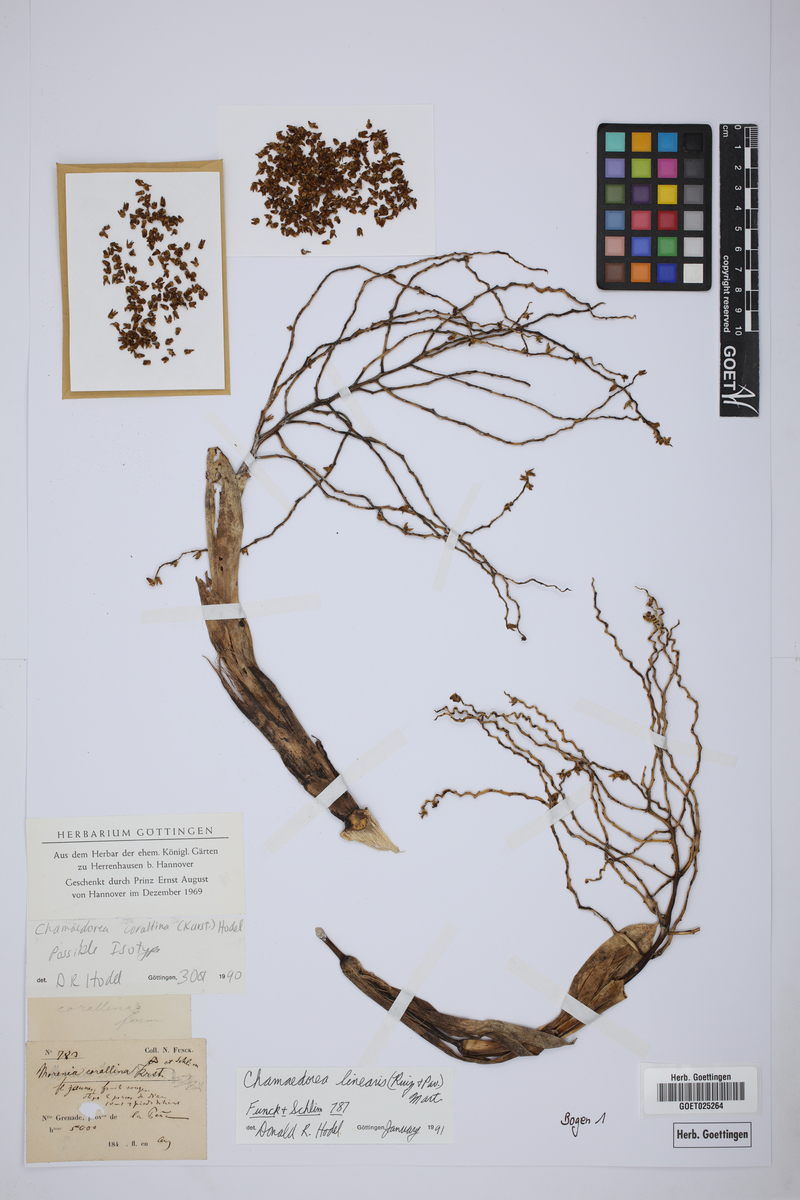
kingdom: Plantae
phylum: Tracheophyta
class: Liliopsida
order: Arecales
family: Arecaceae
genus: Chamaedorea
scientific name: Chamaedorea linearis
